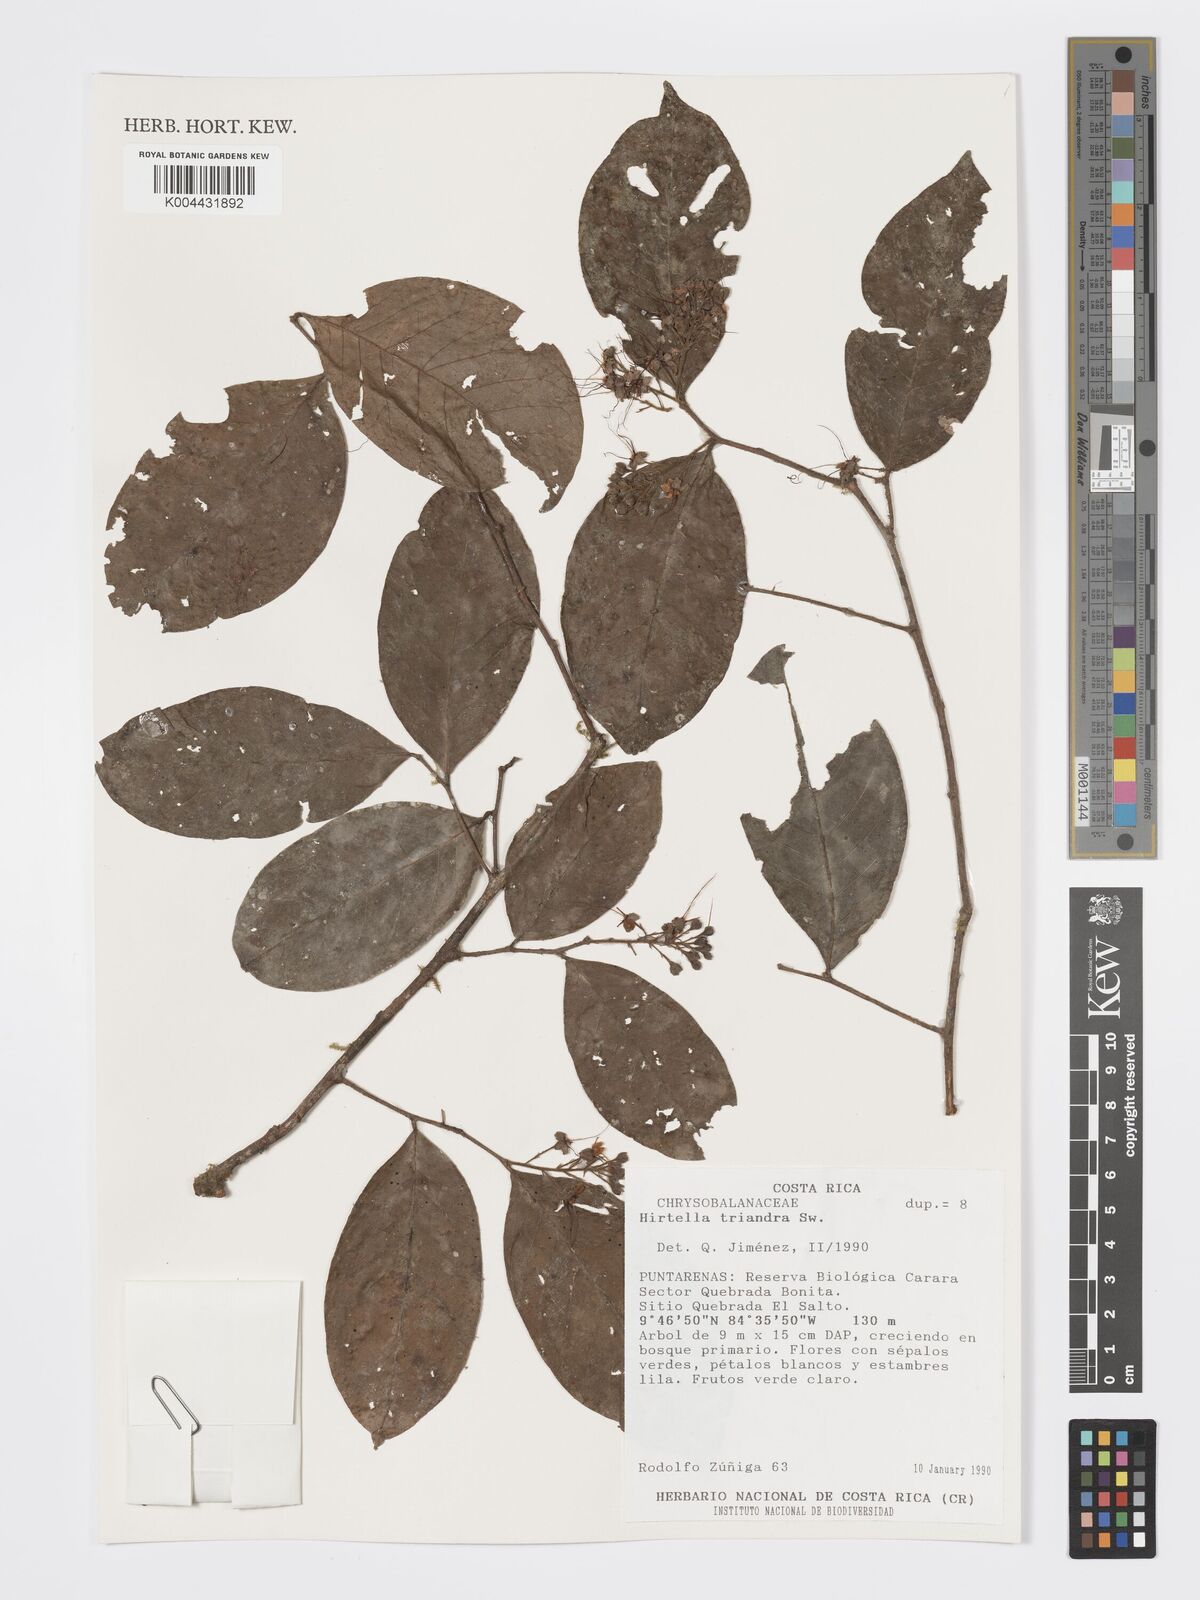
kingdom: Plantae
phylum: Tracheophyta
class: Magnoliopsida
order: Malpighiales
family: Chrysobalanaceae
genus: Hirtella
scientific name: Hirtella triandra
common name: Hairy plum
